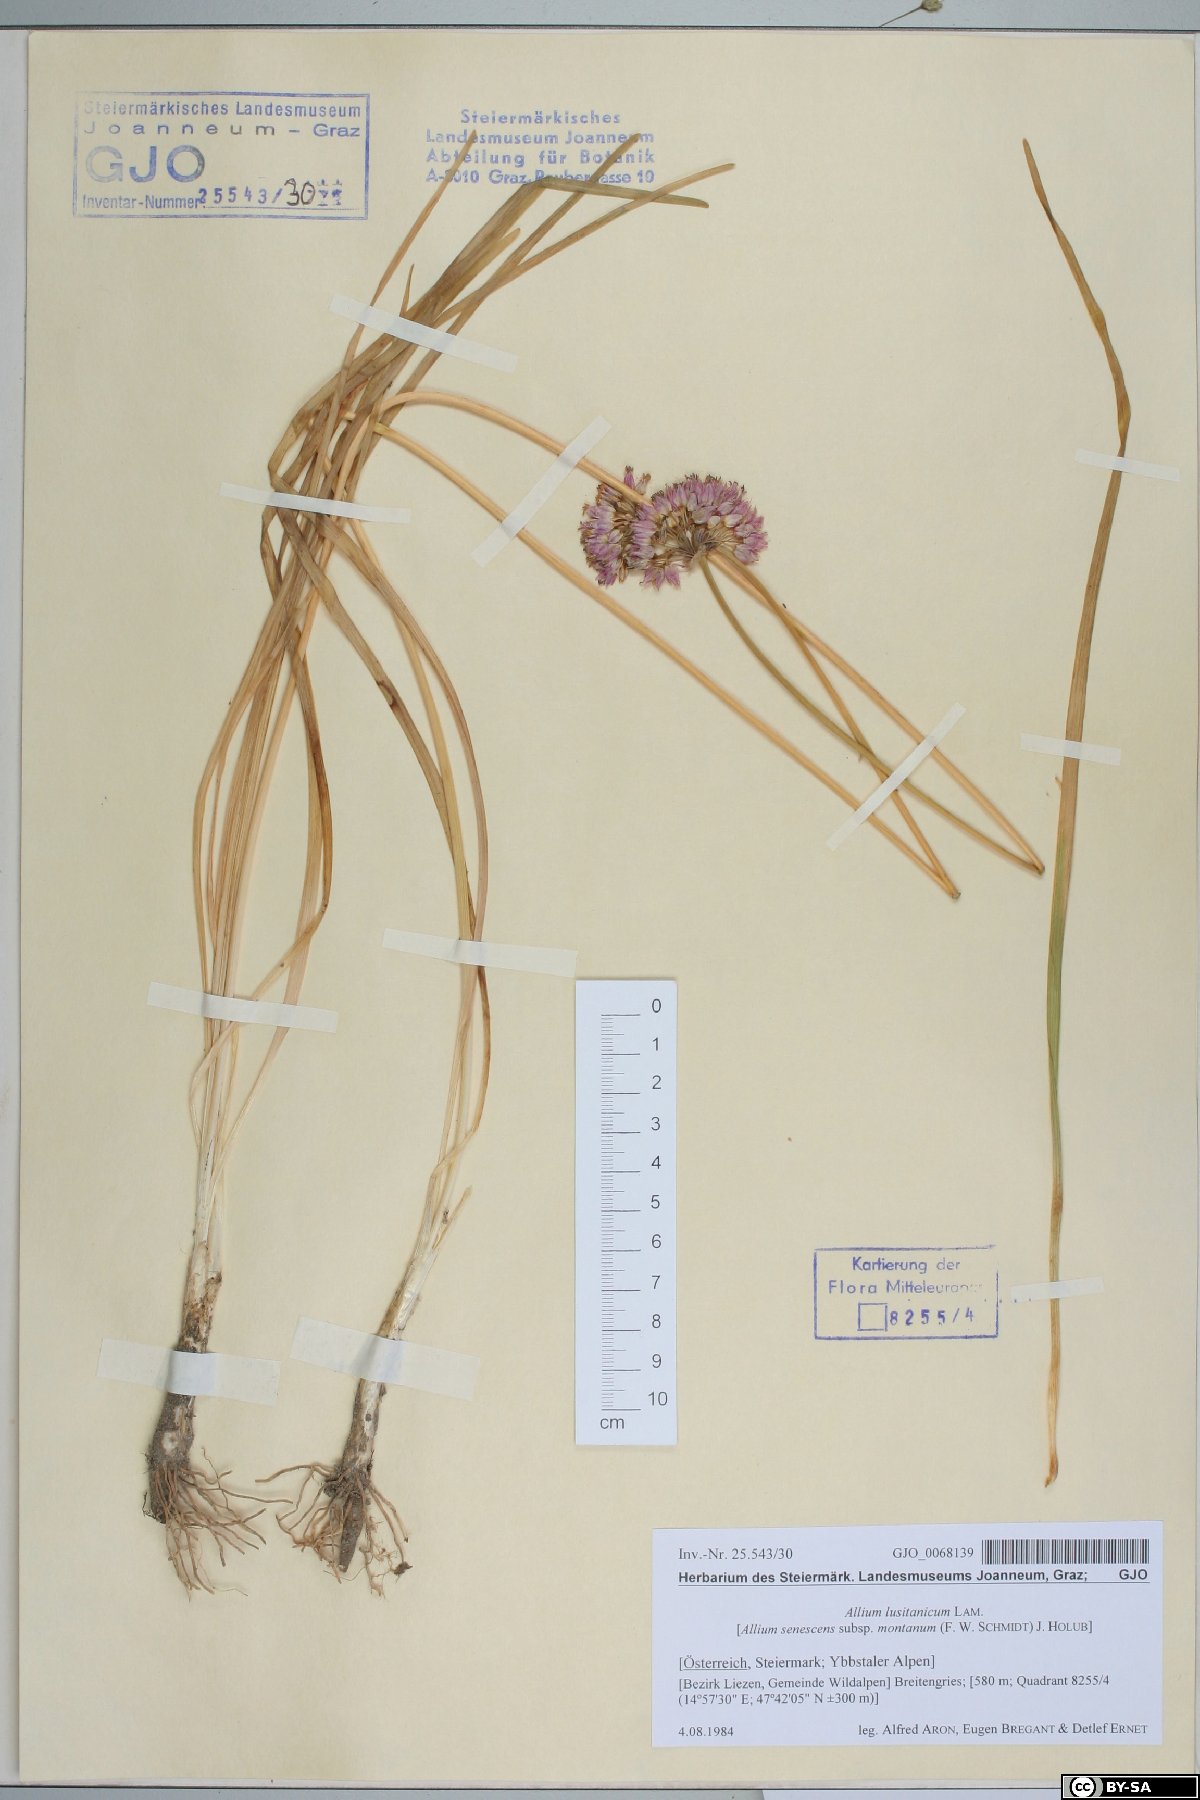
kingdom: Plantae
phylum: Tracheophyta
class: Liliopsida
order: Asparagales
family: Amaryllidaceae
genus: Allium
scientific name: Allium lusitanicum
